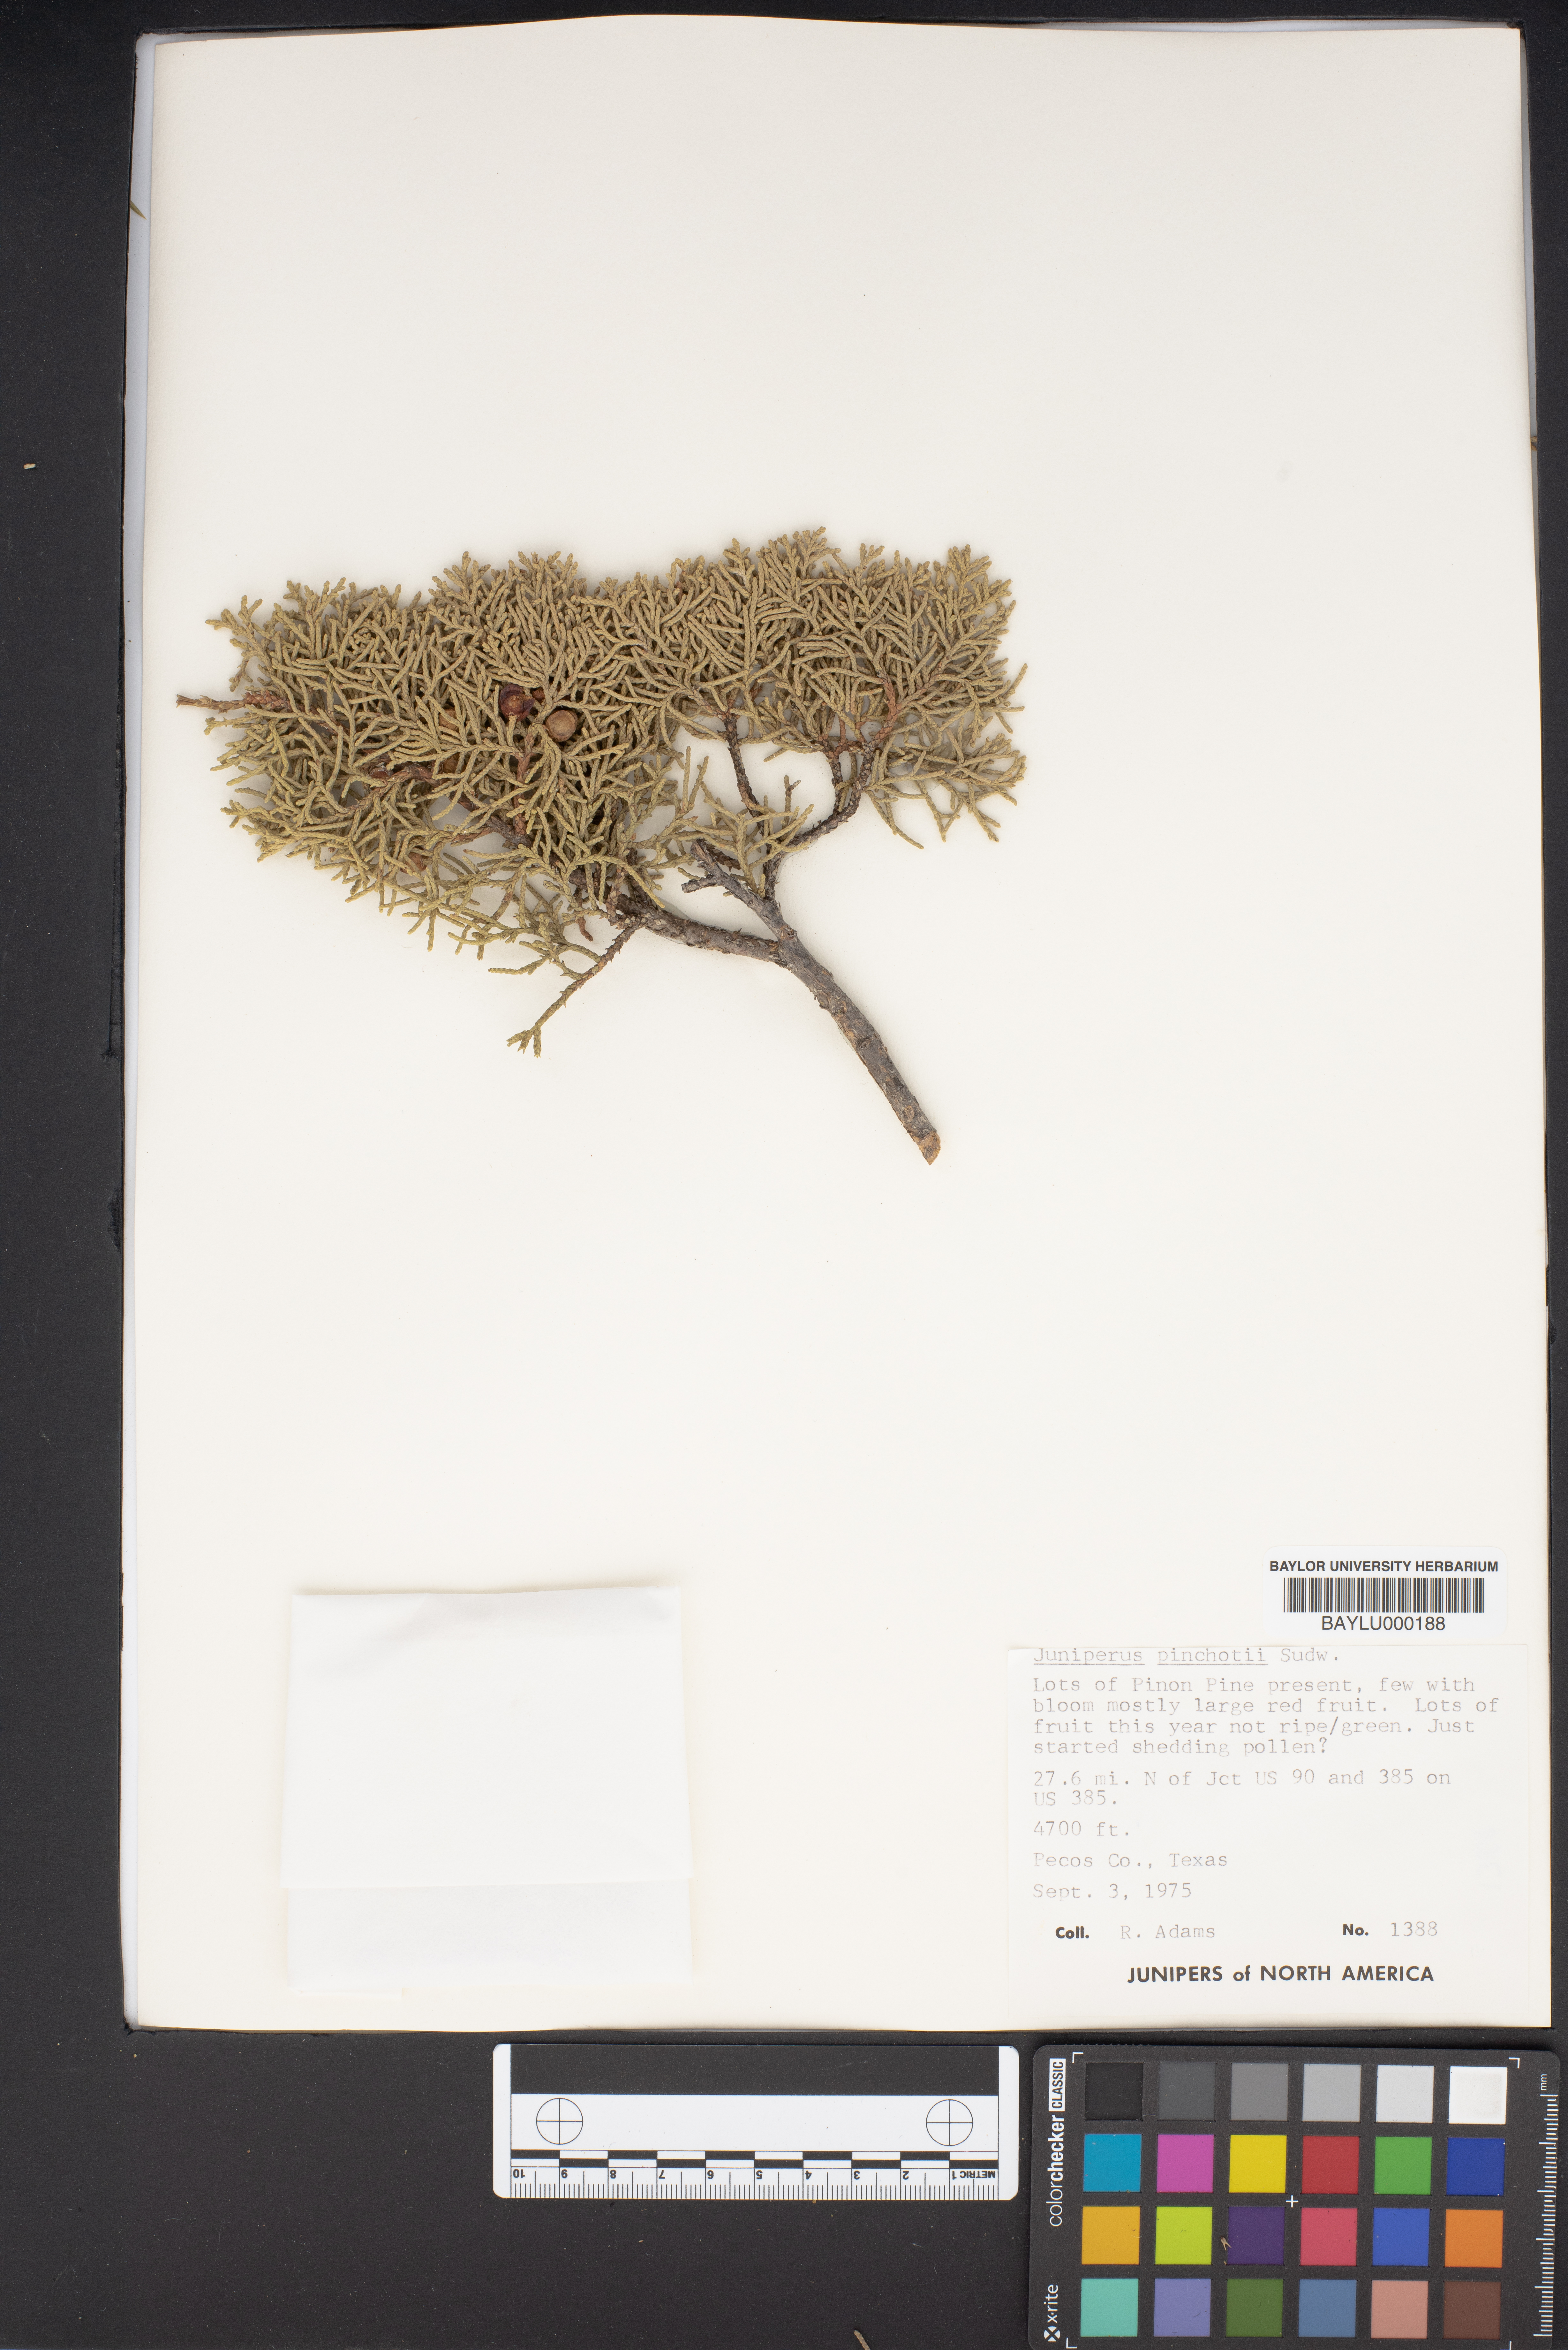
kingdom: Plantae
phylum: Tracheophyta
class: Pinopsida
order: Pinales
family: Cupressaceae
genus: Juniperus
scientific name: Juniperus pinchotii
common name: Pinchot juniper
